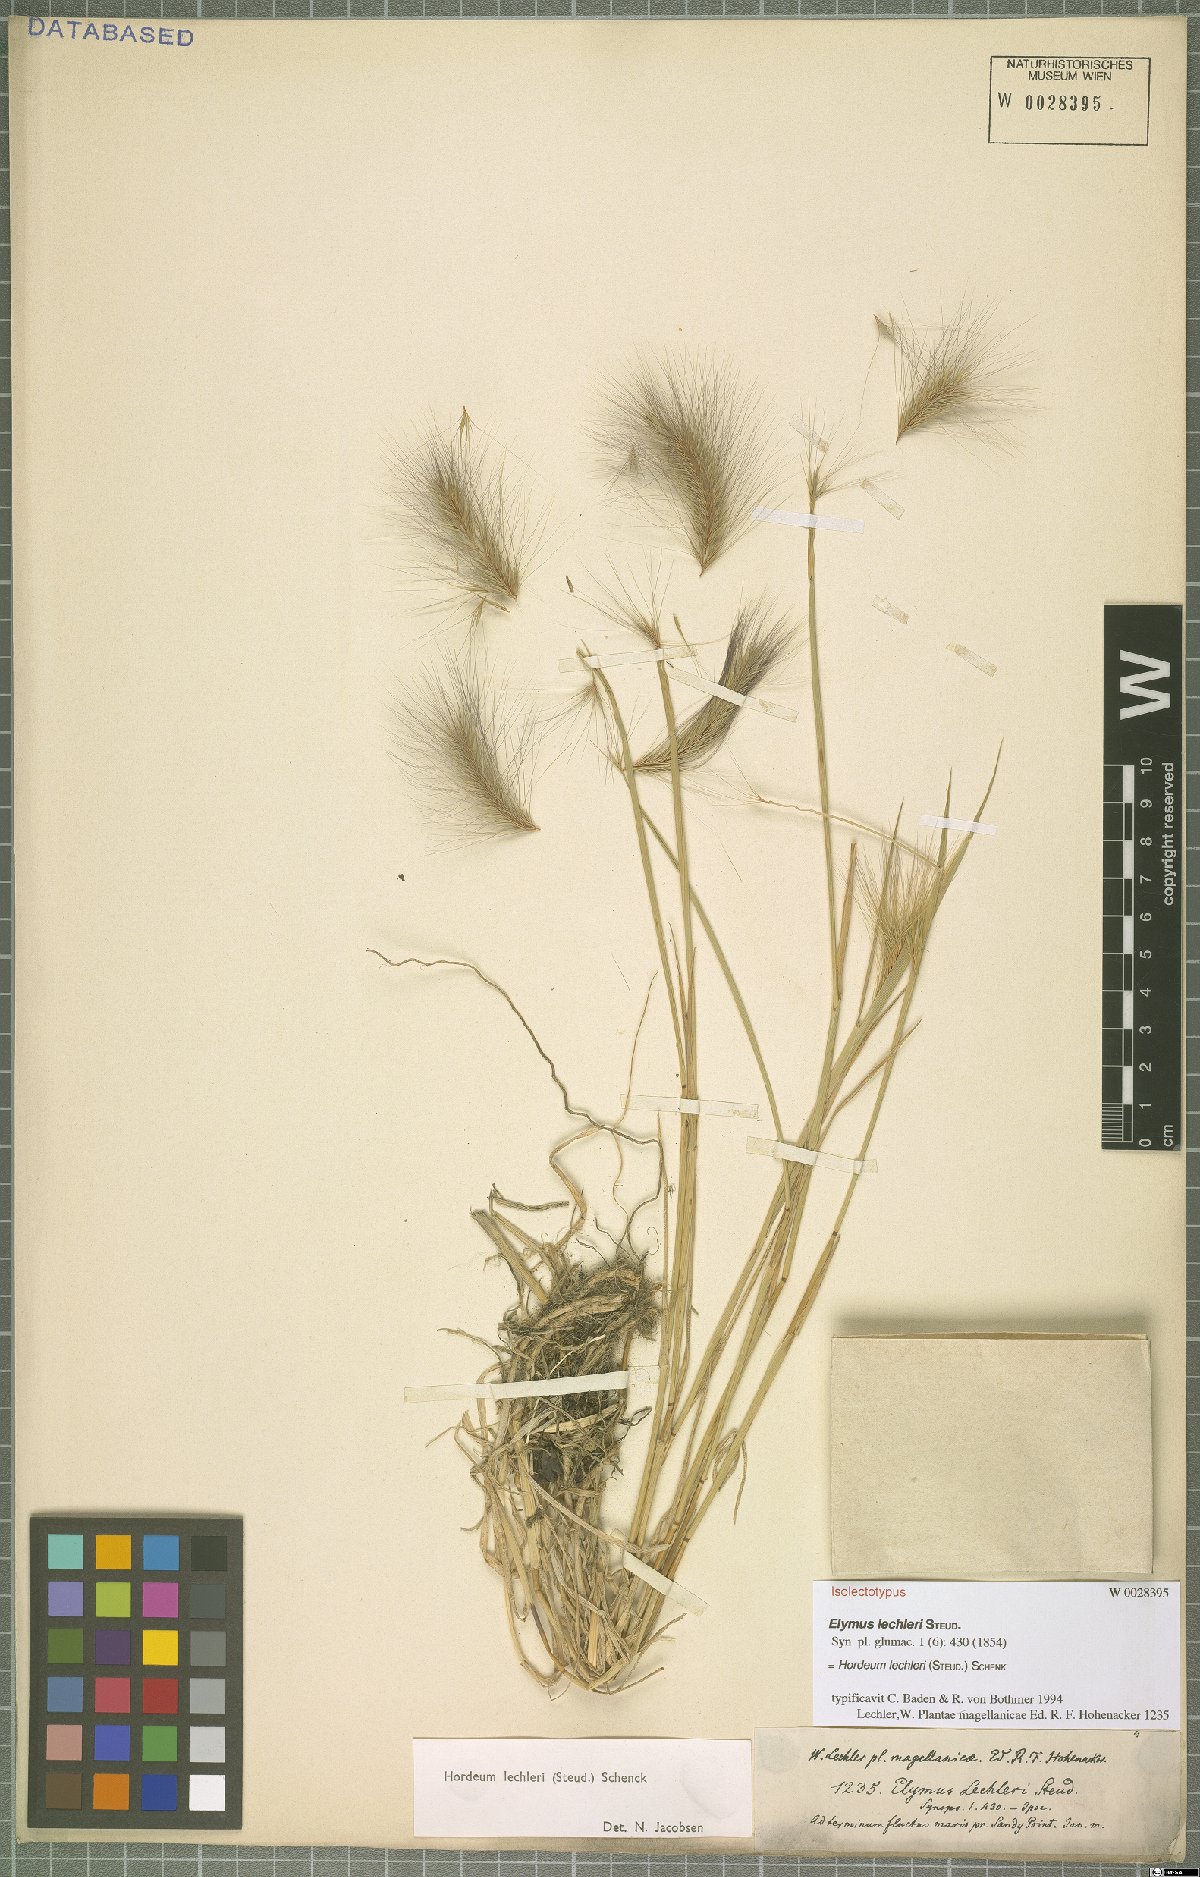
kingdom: Plantae
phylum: Tracheophyta
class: Liliopsida
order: Poales
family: Poaceae
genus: Hordeum
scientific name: Hordeum lechleri
